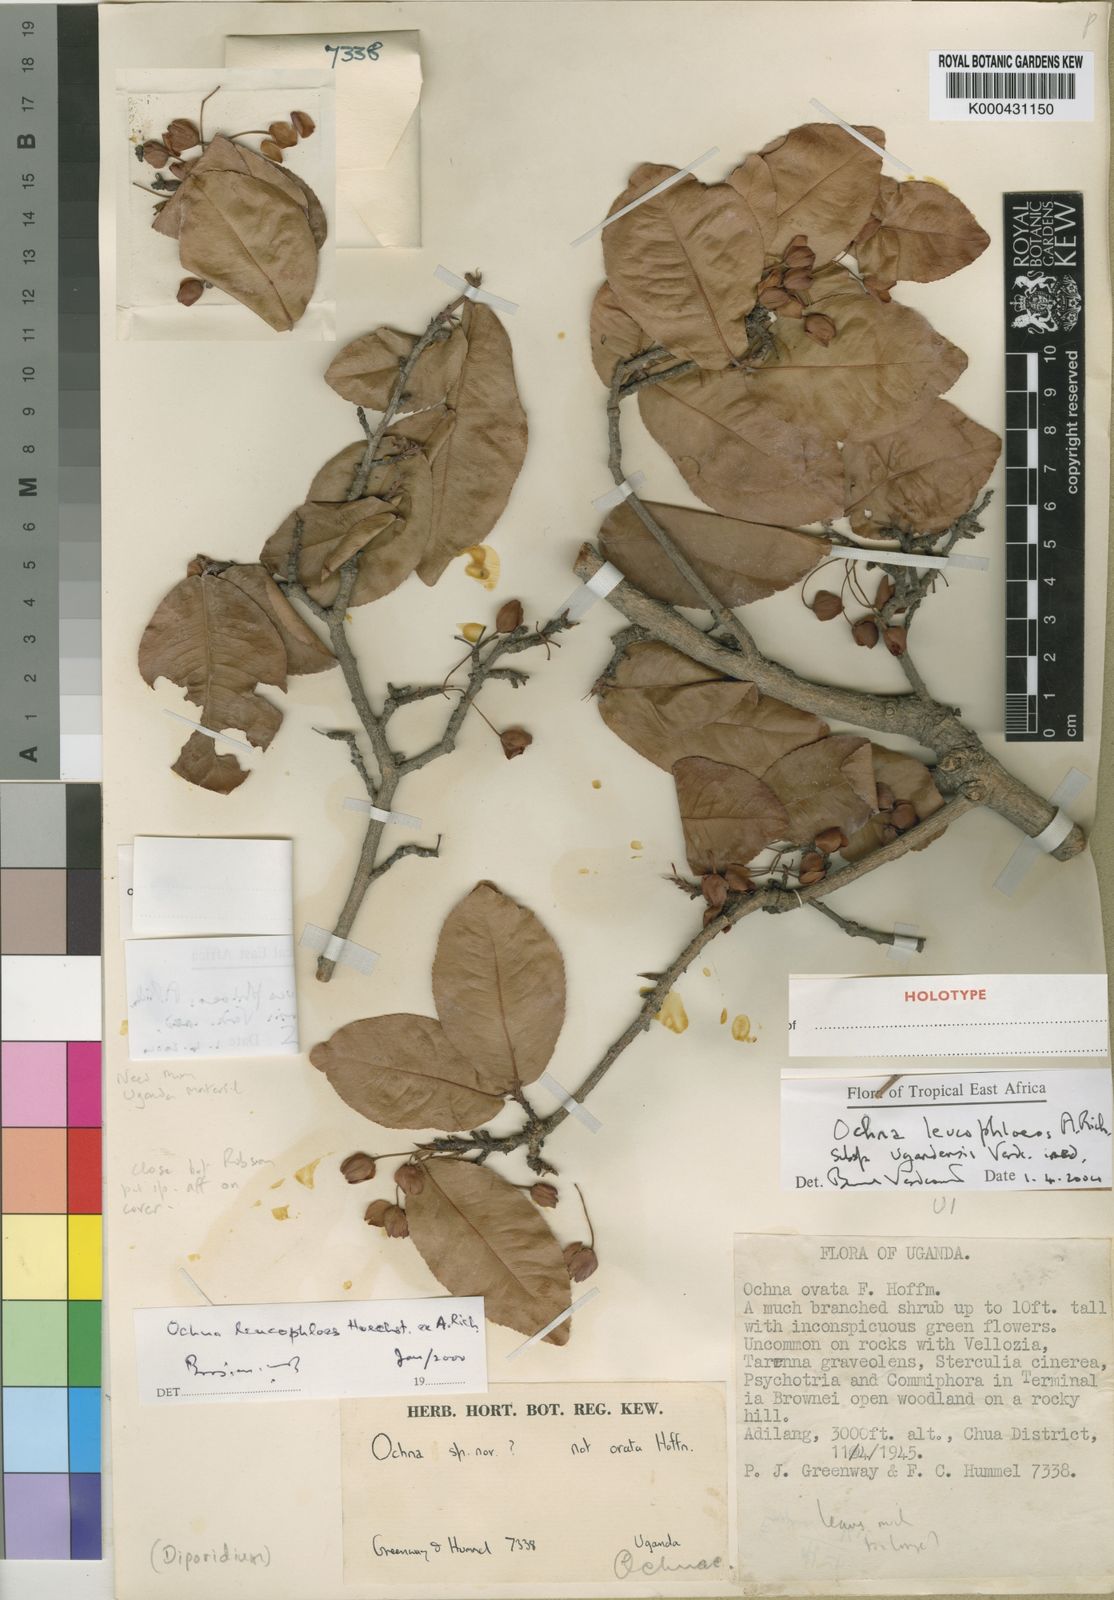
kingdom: Plantae
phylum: Tracheophyta
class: Magnoliopsida
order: Malpighiales
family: Ochnaceae
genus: Ochna
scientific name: Ochna leucophloeos
